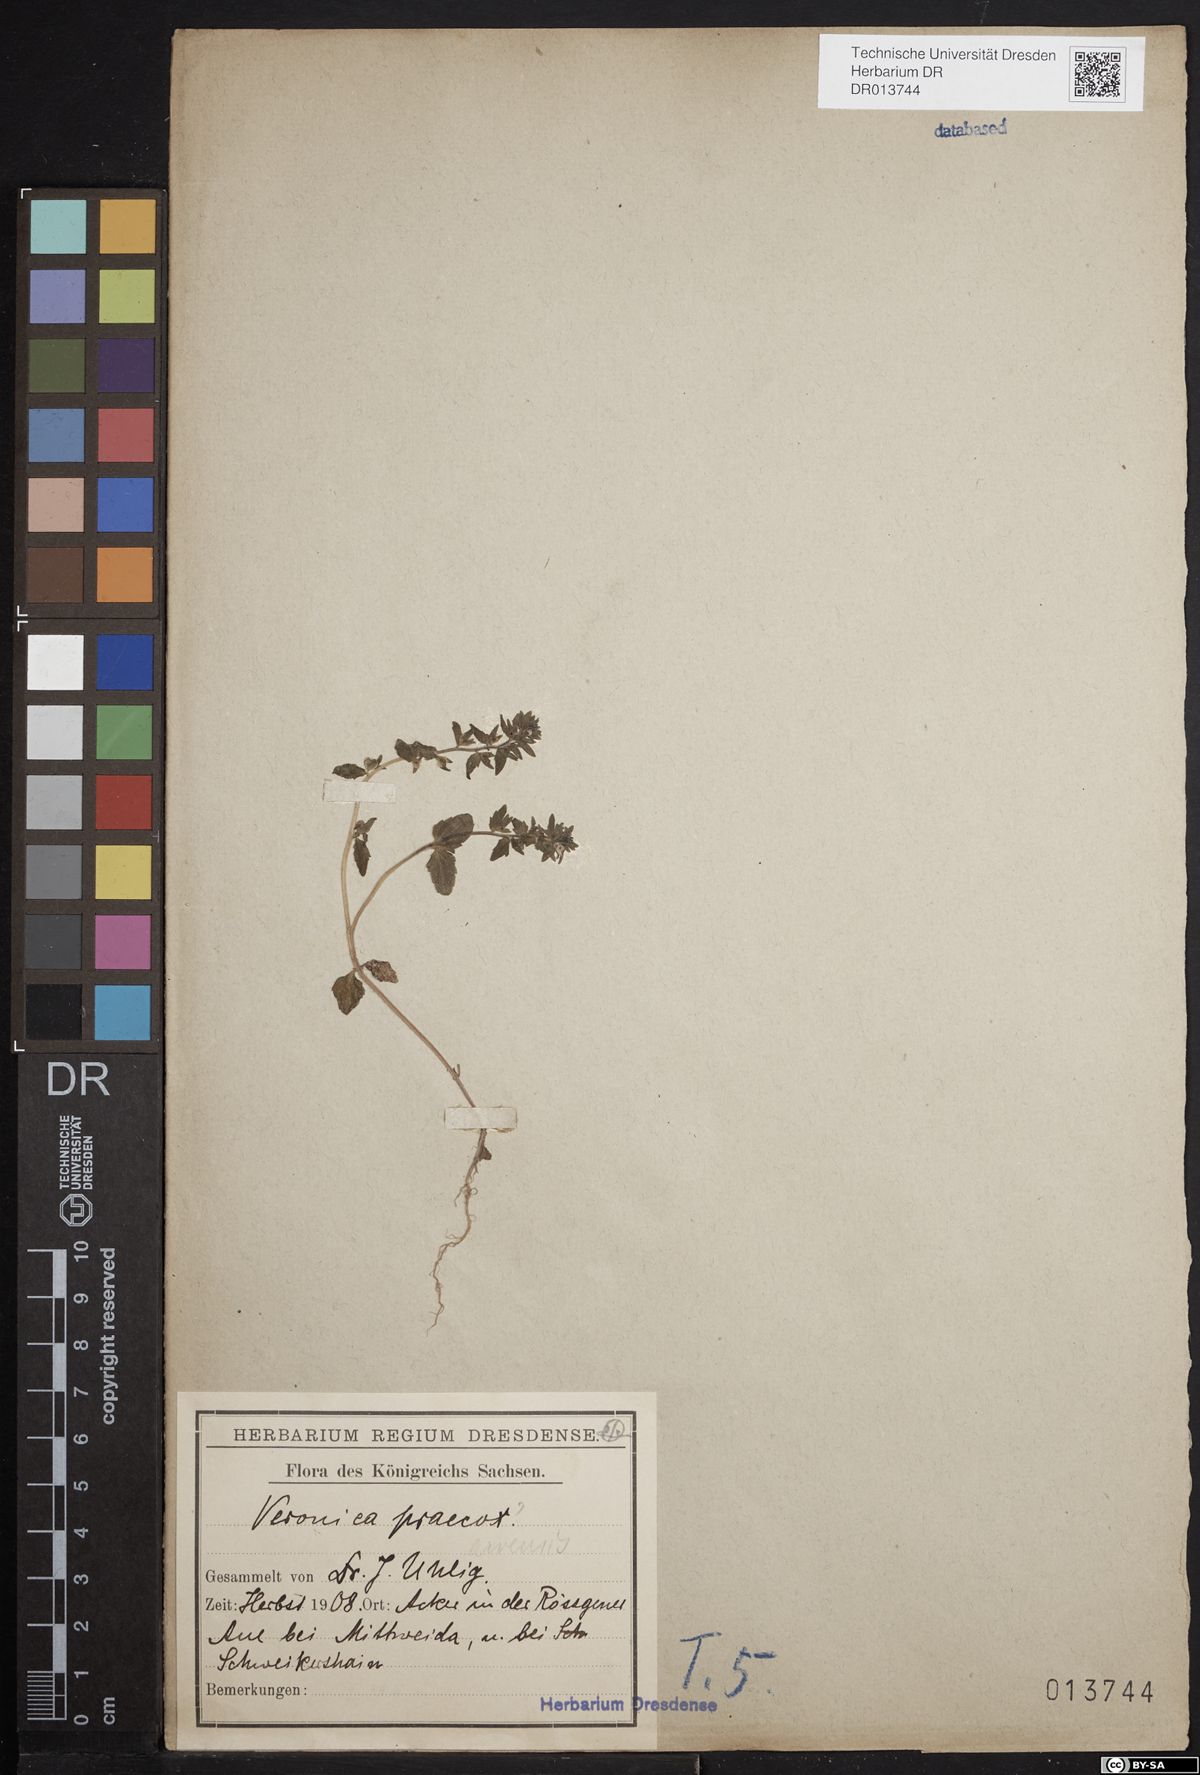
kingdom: Plantae
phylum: Tracheophyta
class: Magnoliopsida
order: Lamiales
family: Plantaginaceae
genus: Veronica
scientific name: Veronica arvensis
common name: Corn speedwell
